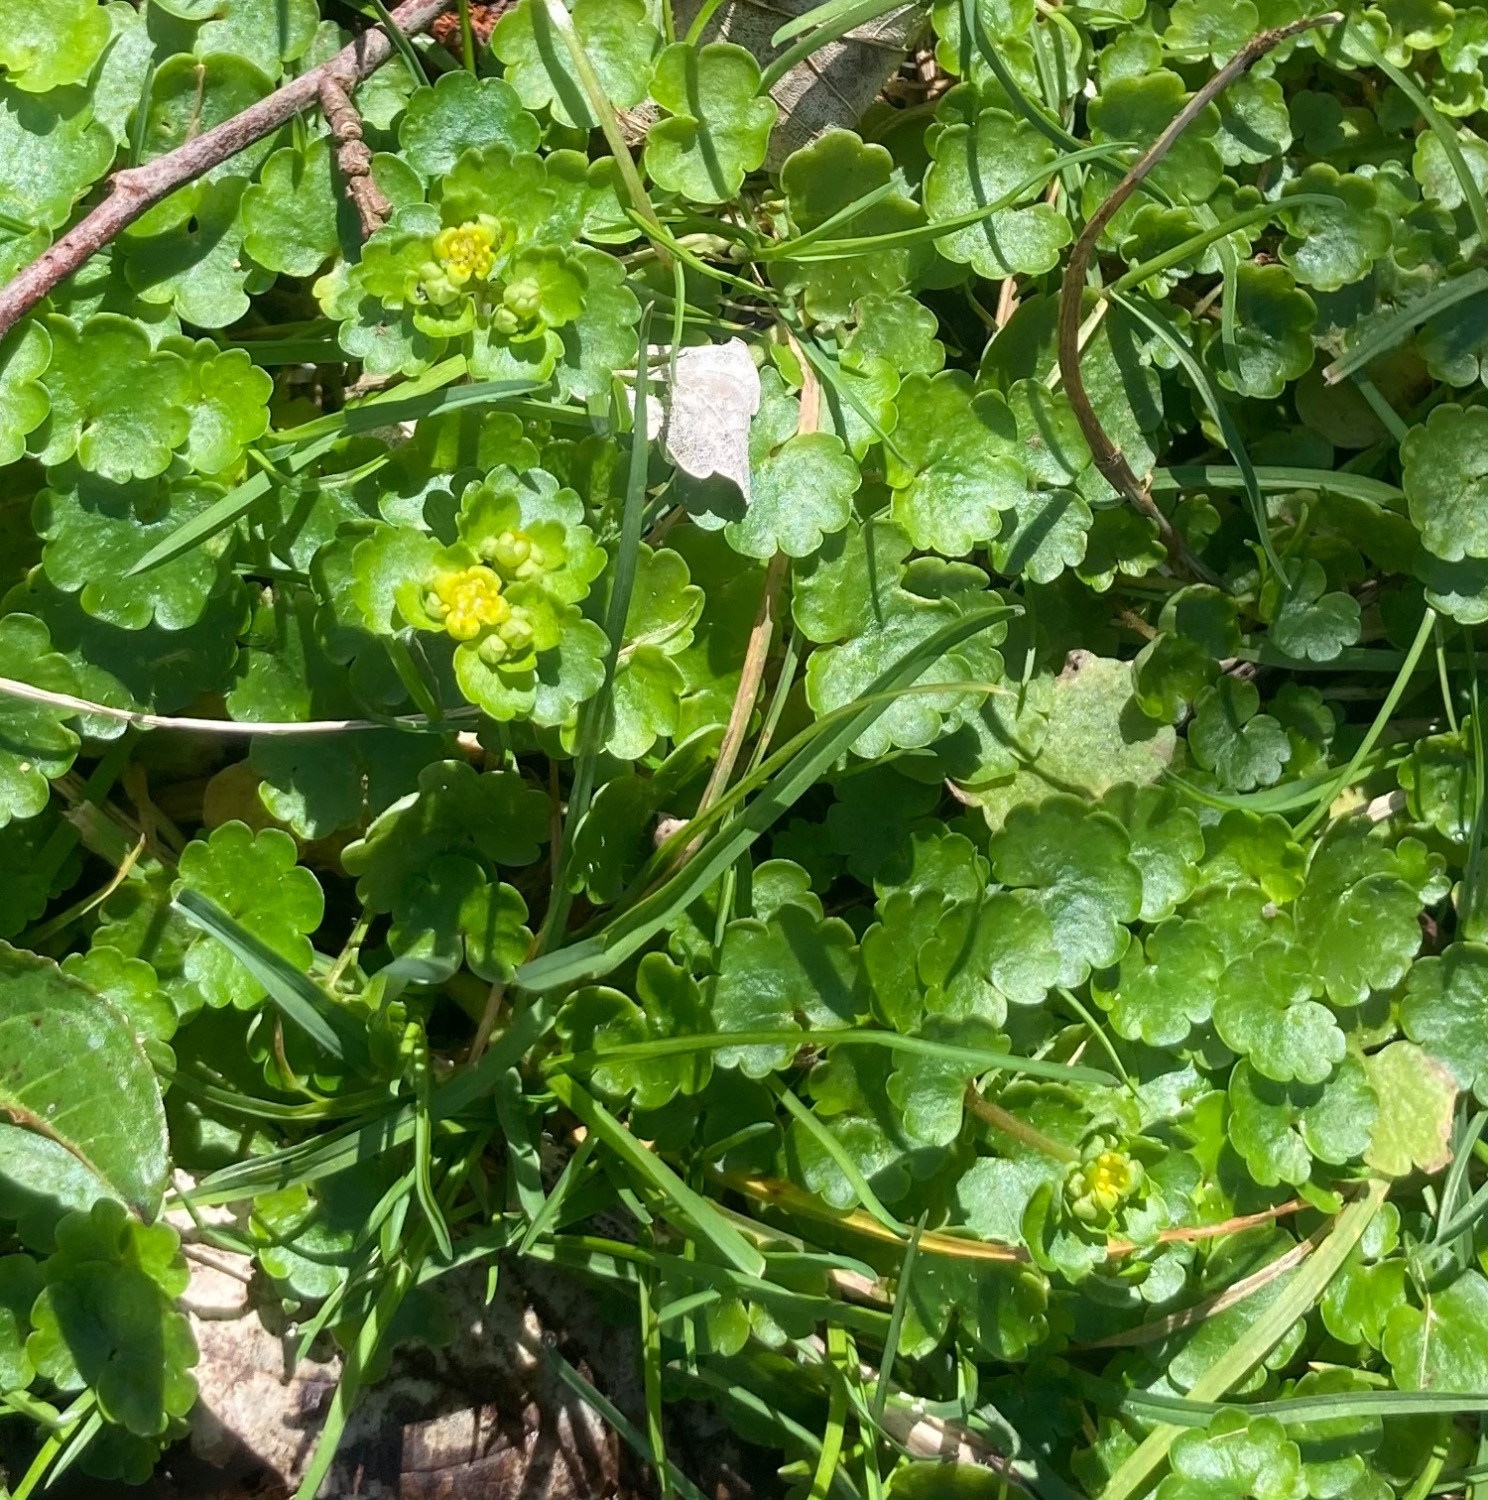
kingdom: Plantae
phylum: Tracheophyta
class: Magnoliopsida
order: Saxifragales
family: Saxifragaceae
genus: Chrysosplenium
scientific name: Chrysosplenium alternifolium
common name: Almindelig milturt
